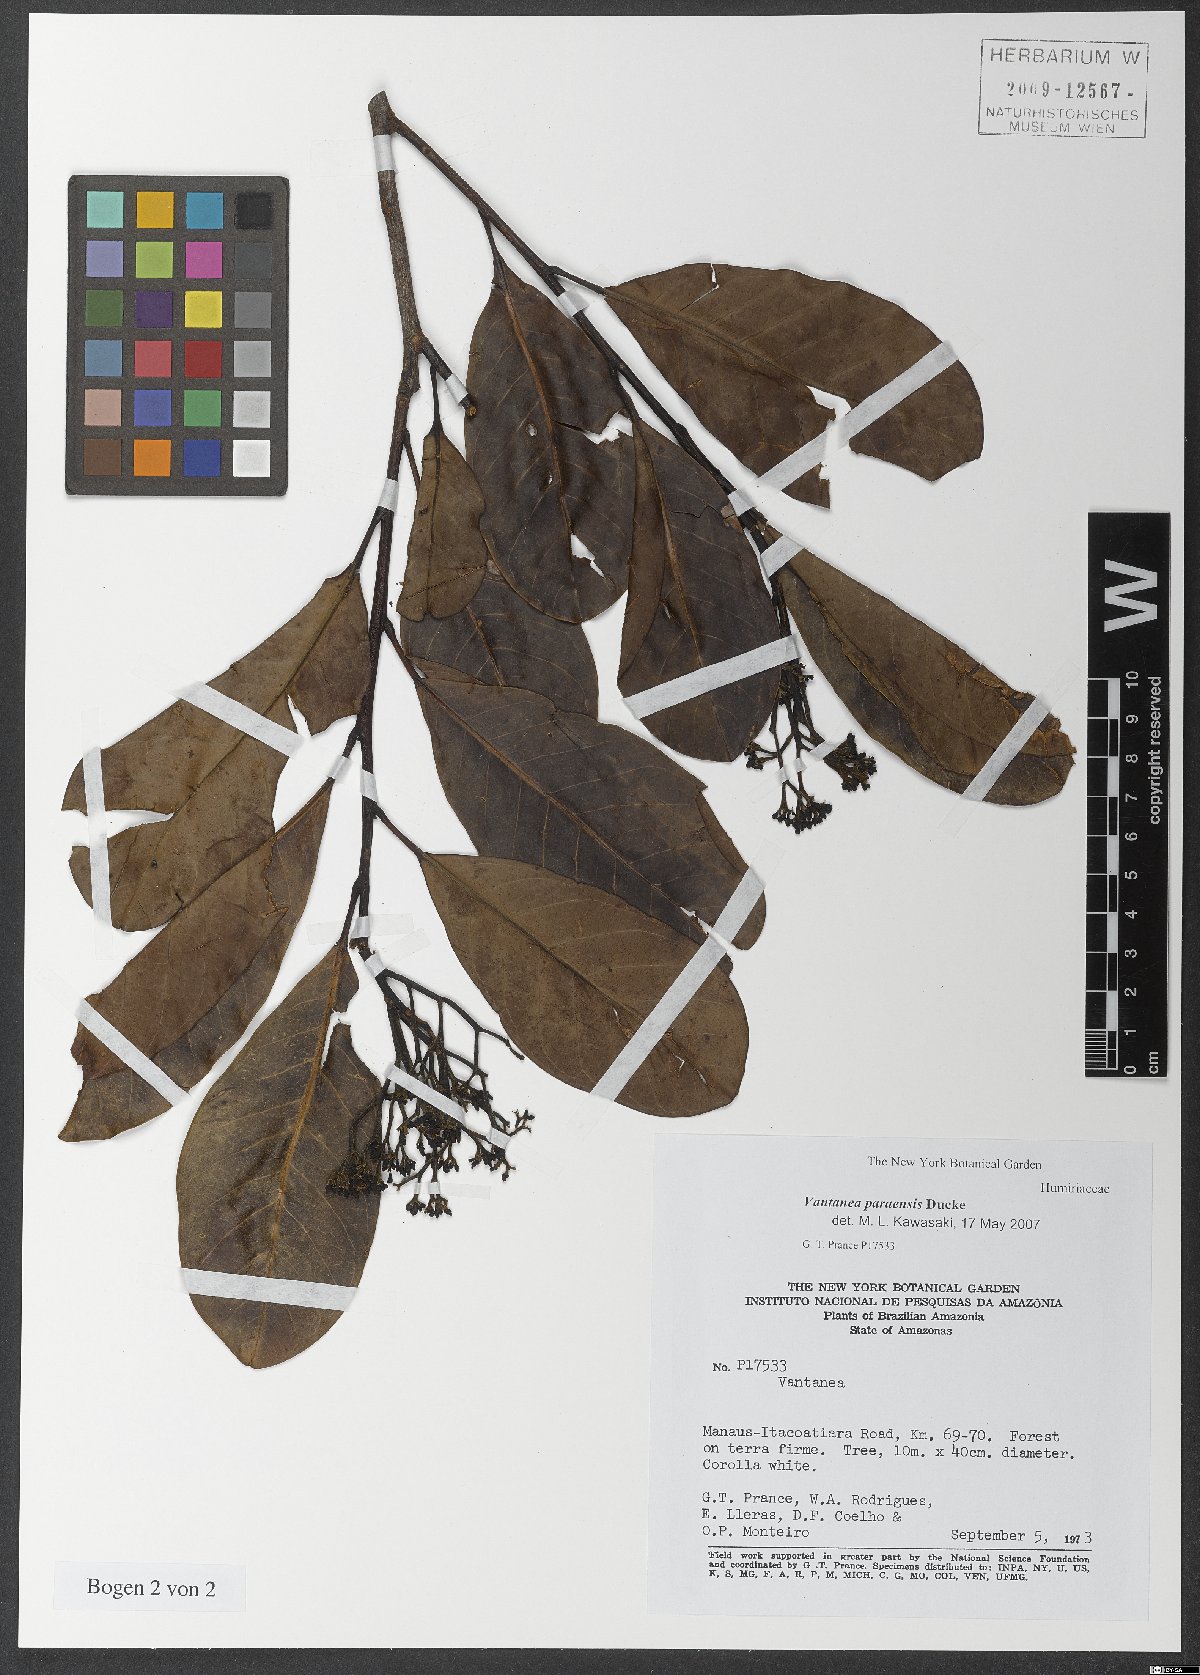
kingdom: Plantae
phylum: Tracheophyta
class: Magnoliopsida
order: Malpighiales
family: Humiriaceae
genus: Vantanea
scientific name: Vantanea paraensis
